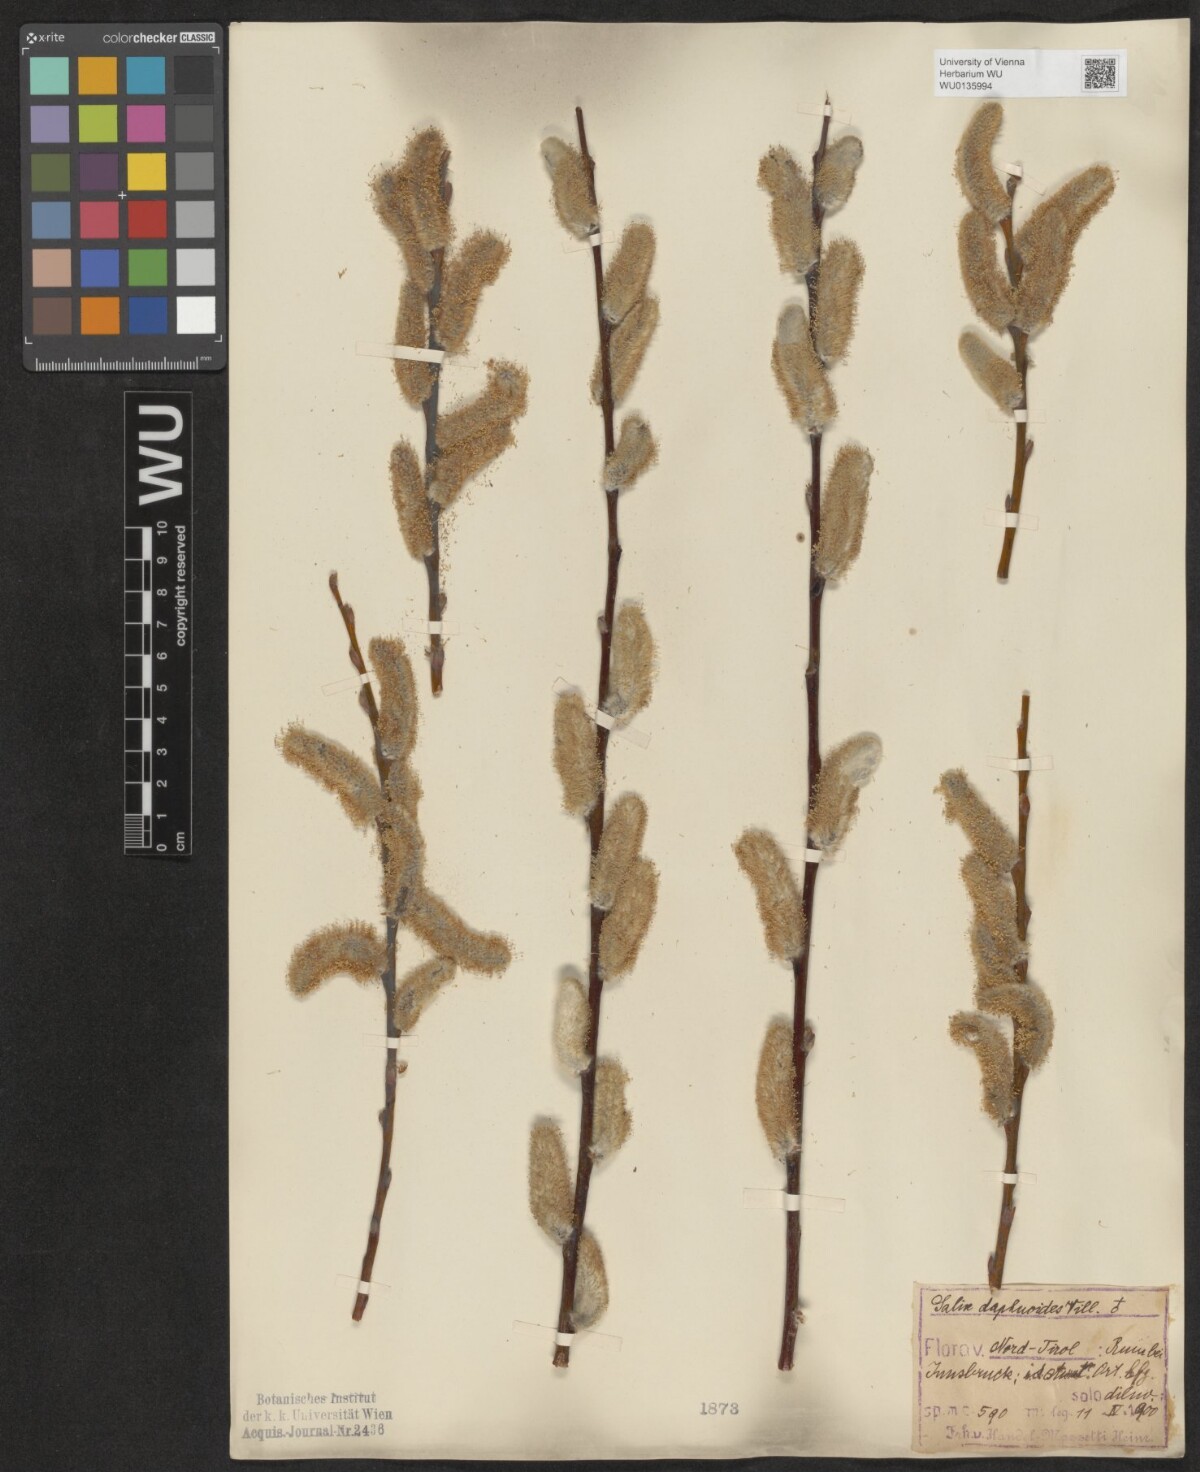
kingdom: Plantae
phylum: Tracheophyta
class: Magnoliopsida
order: Malpighiales
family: Salicaceae
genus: Salix
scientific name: Salix daphnoides
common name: European violet-willow
